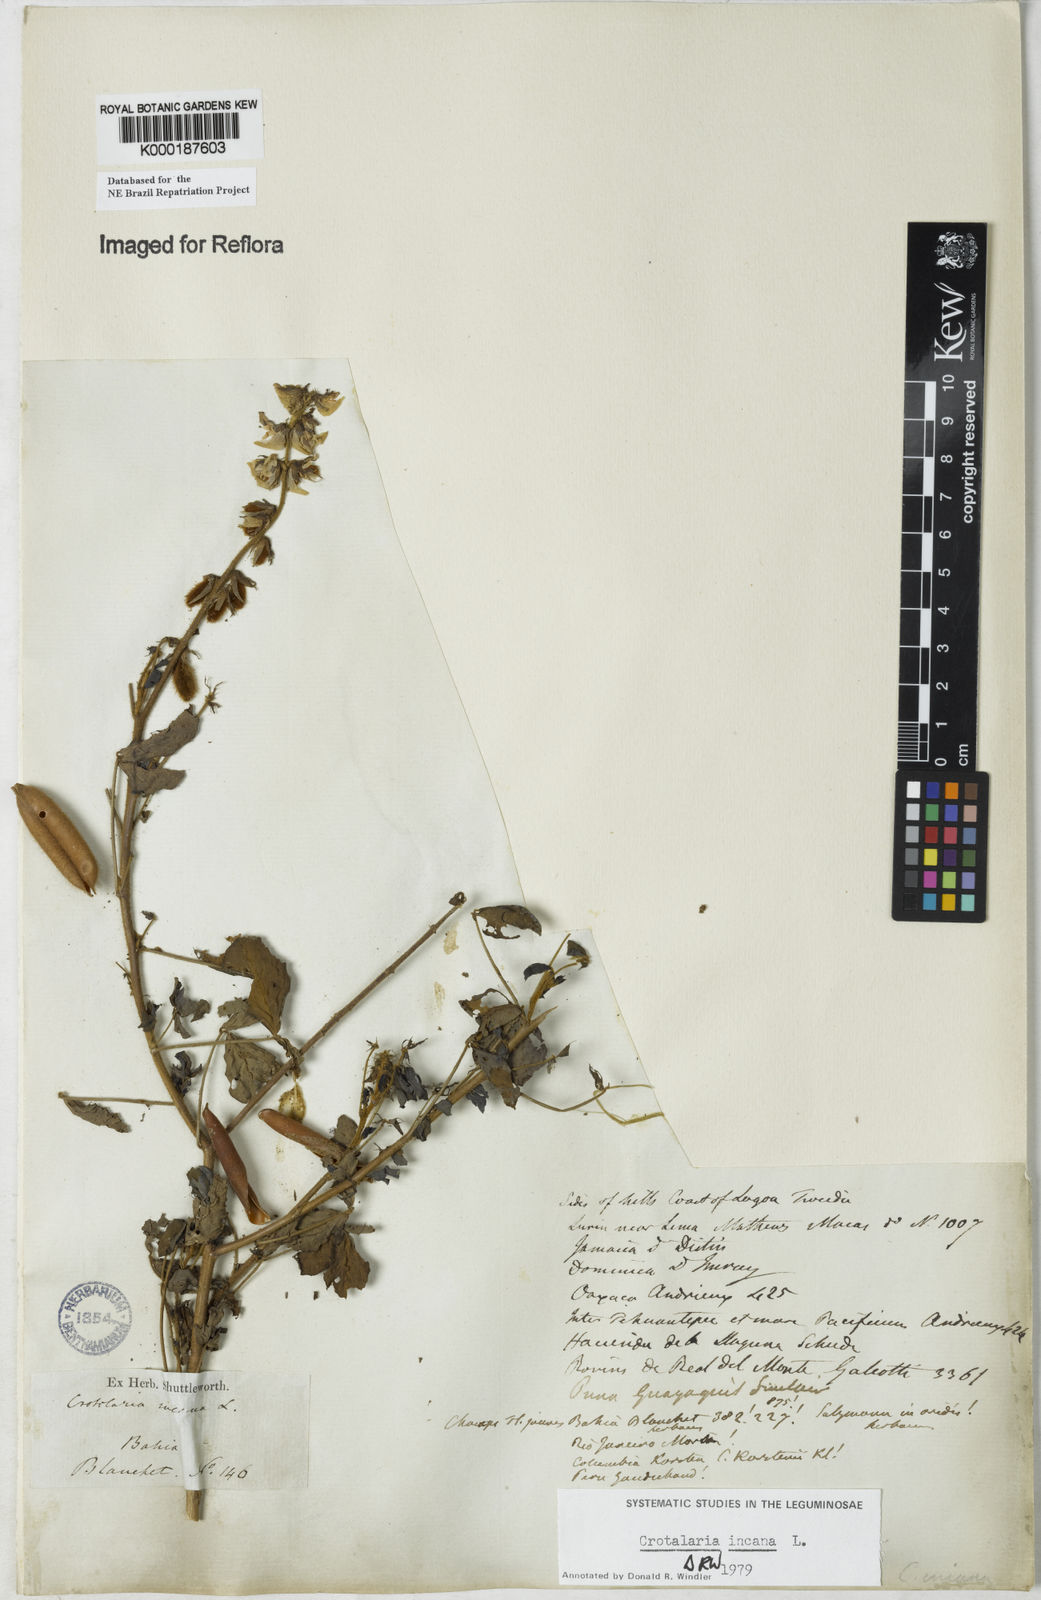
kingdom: Plantae
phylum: Tracheophyta
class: Magnoliopsida
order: Fabales
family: Fabaceae
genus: Crotalaria
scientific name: Crotalaria incana
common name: Shakeshake
